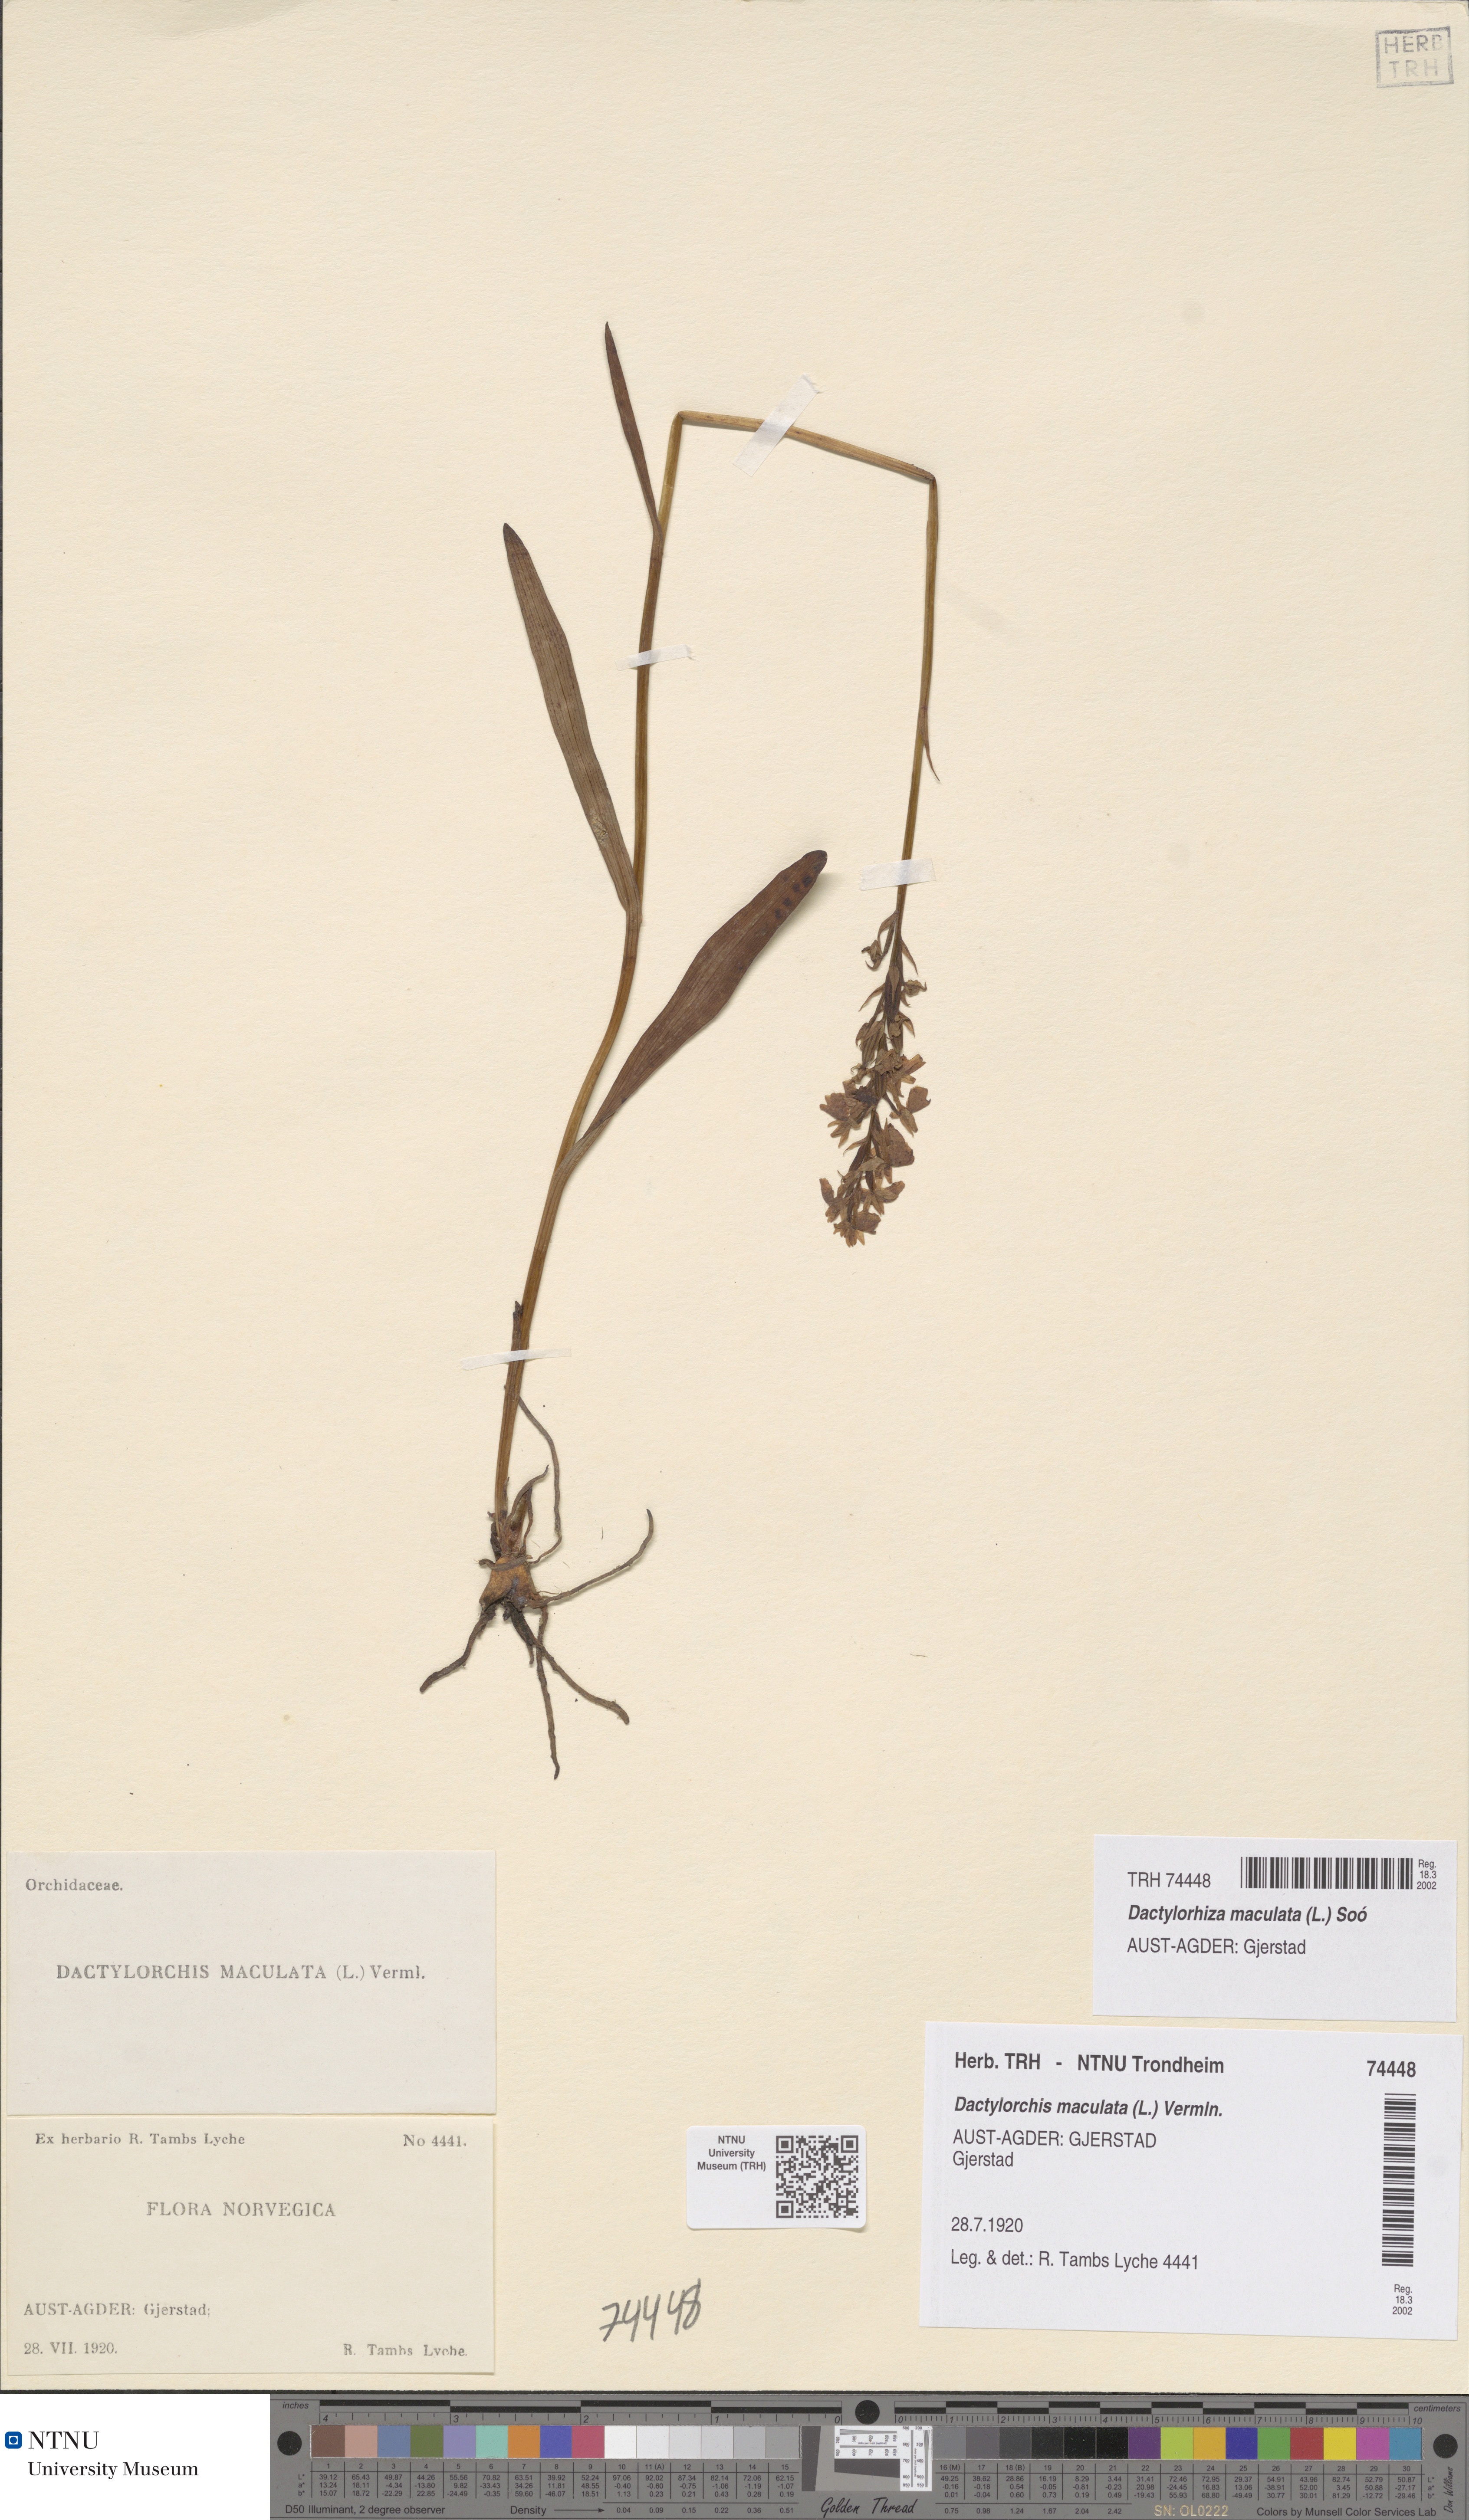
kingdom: Plantae
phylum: Tracheophyta
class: Liliopsida
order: Asparagales
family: Orchidaceae
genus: Dactylorhiza
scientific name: Dactylorhiza maculata
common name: Heath spotted-orchid
